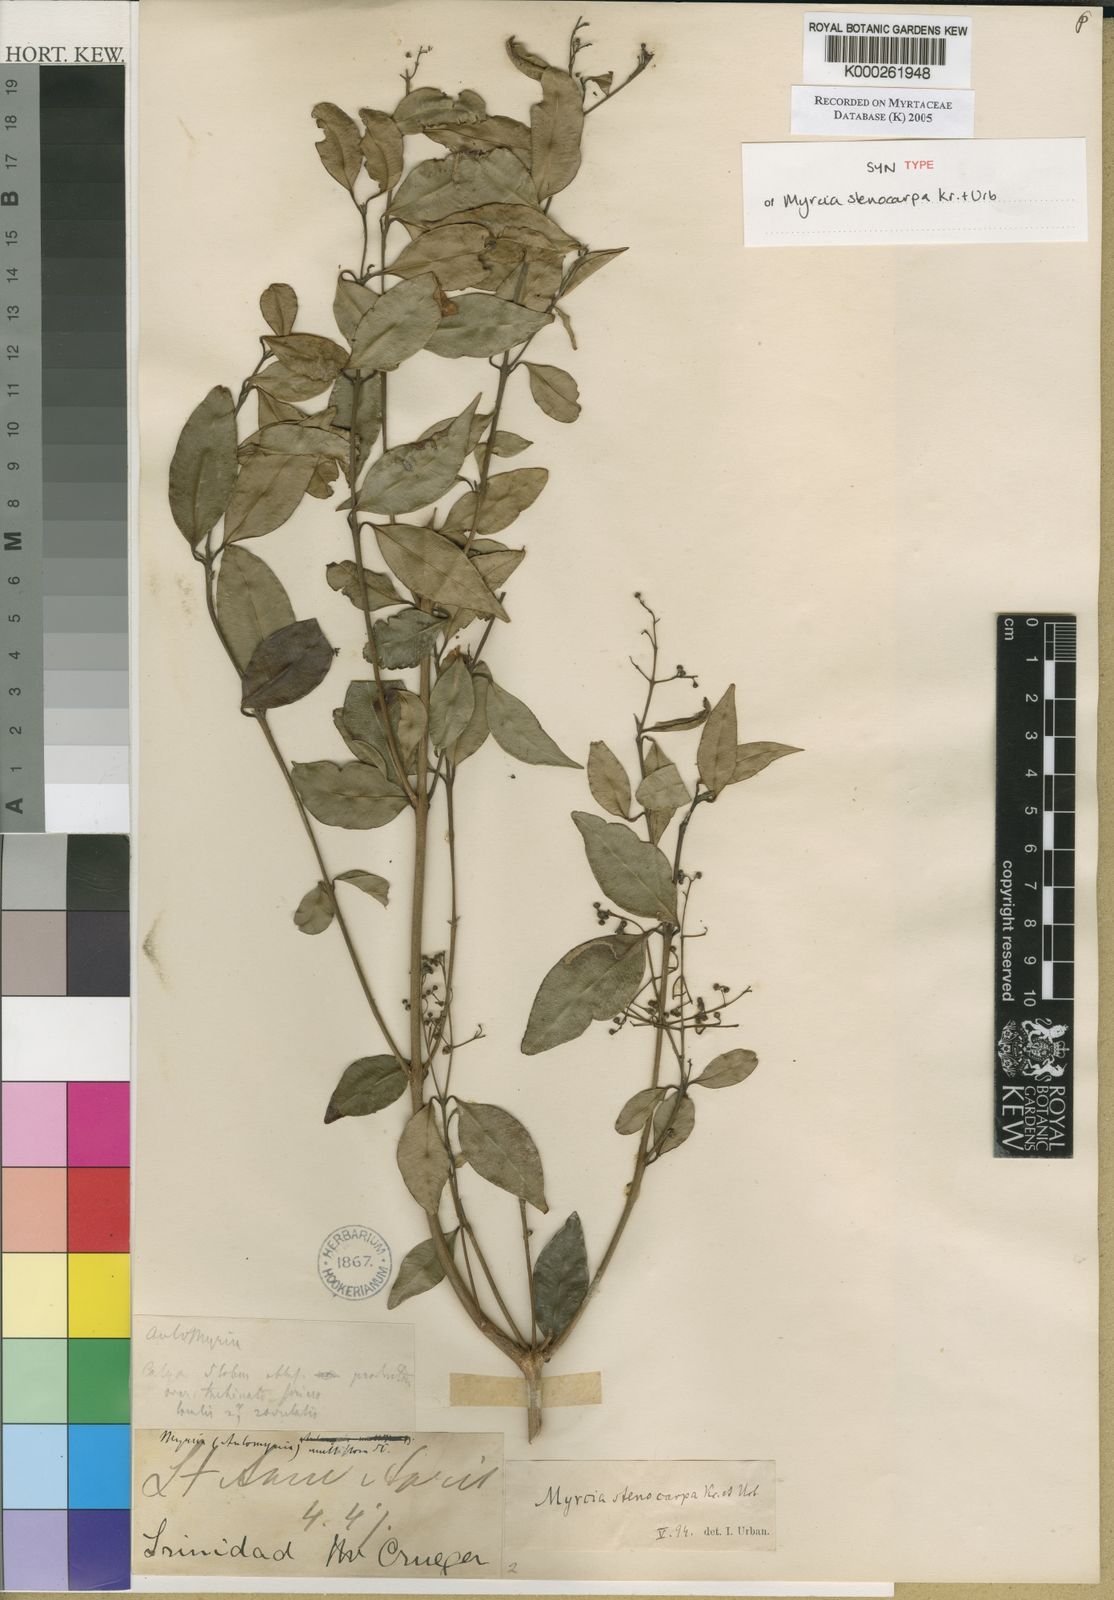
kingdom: Plantae
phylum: Tracheophyta
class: Magnoliopsida
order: Myrtales
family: Myrtaceae
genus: Myrcia
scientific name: Myrcia stenocarpa
